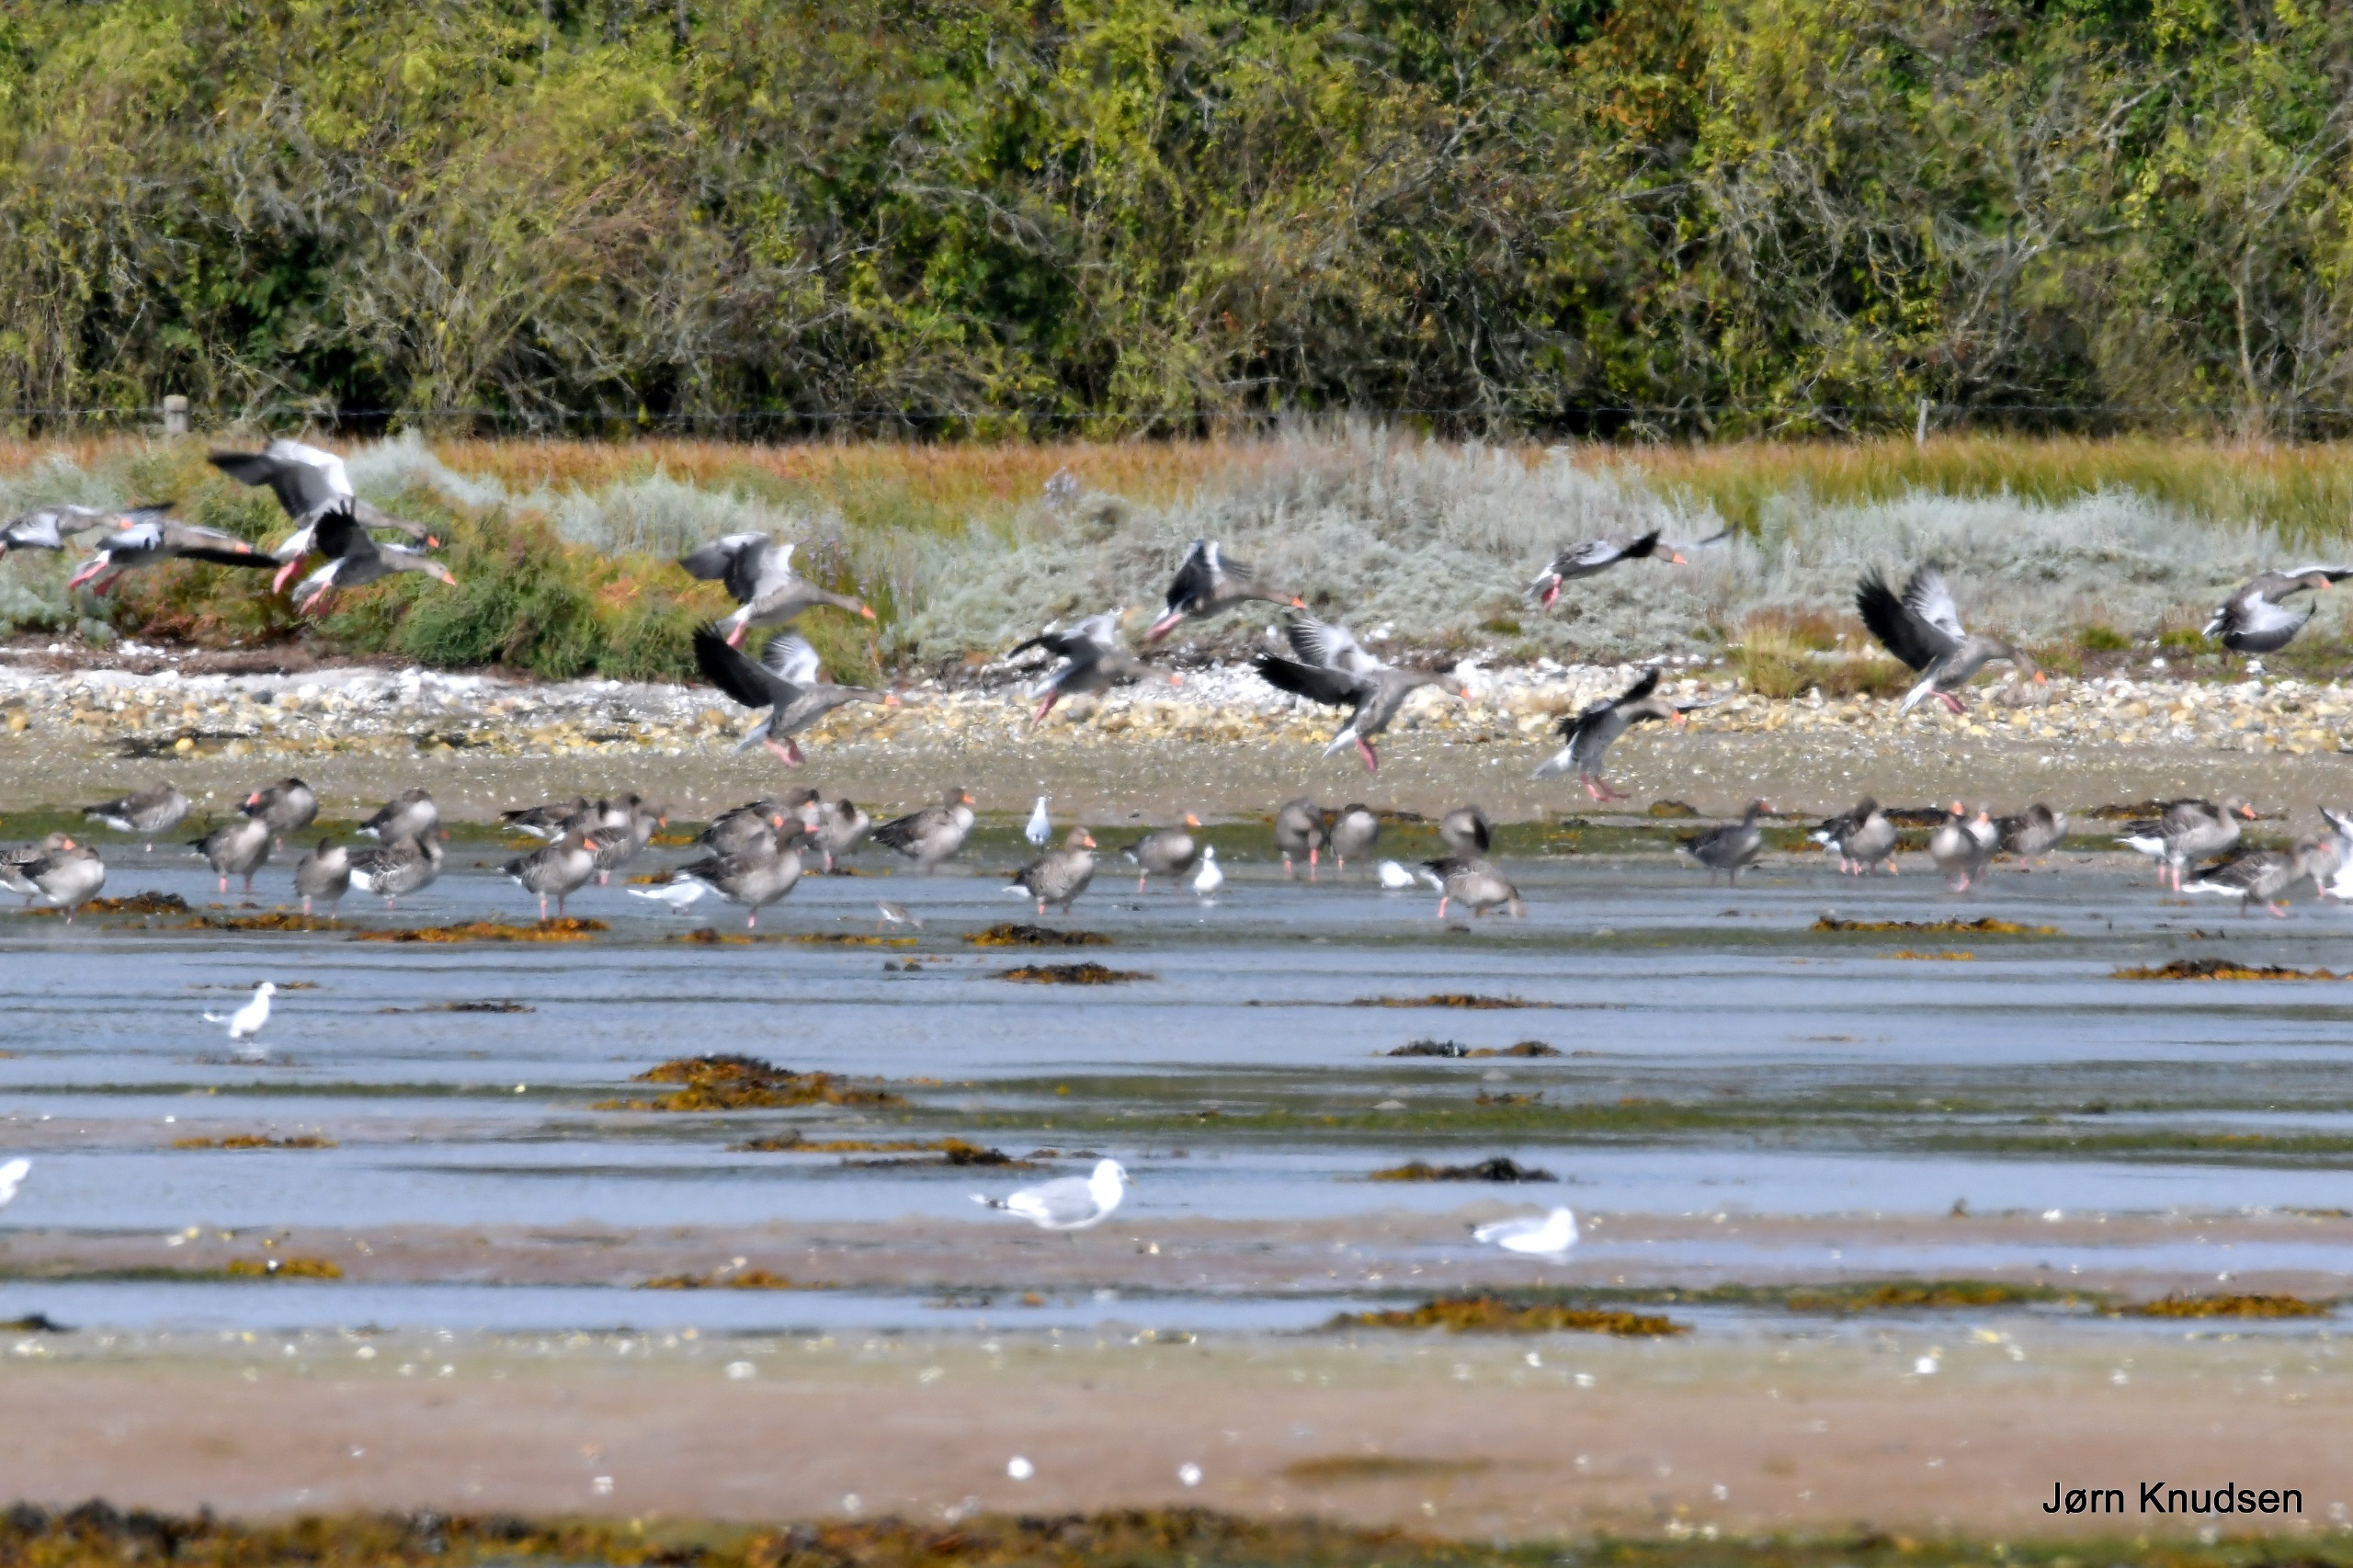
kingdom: Animalia
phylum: Chordata
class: Aves
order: Anseriformes
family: Anatidae
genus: Anser
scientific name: Anser anser
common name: Grågås
